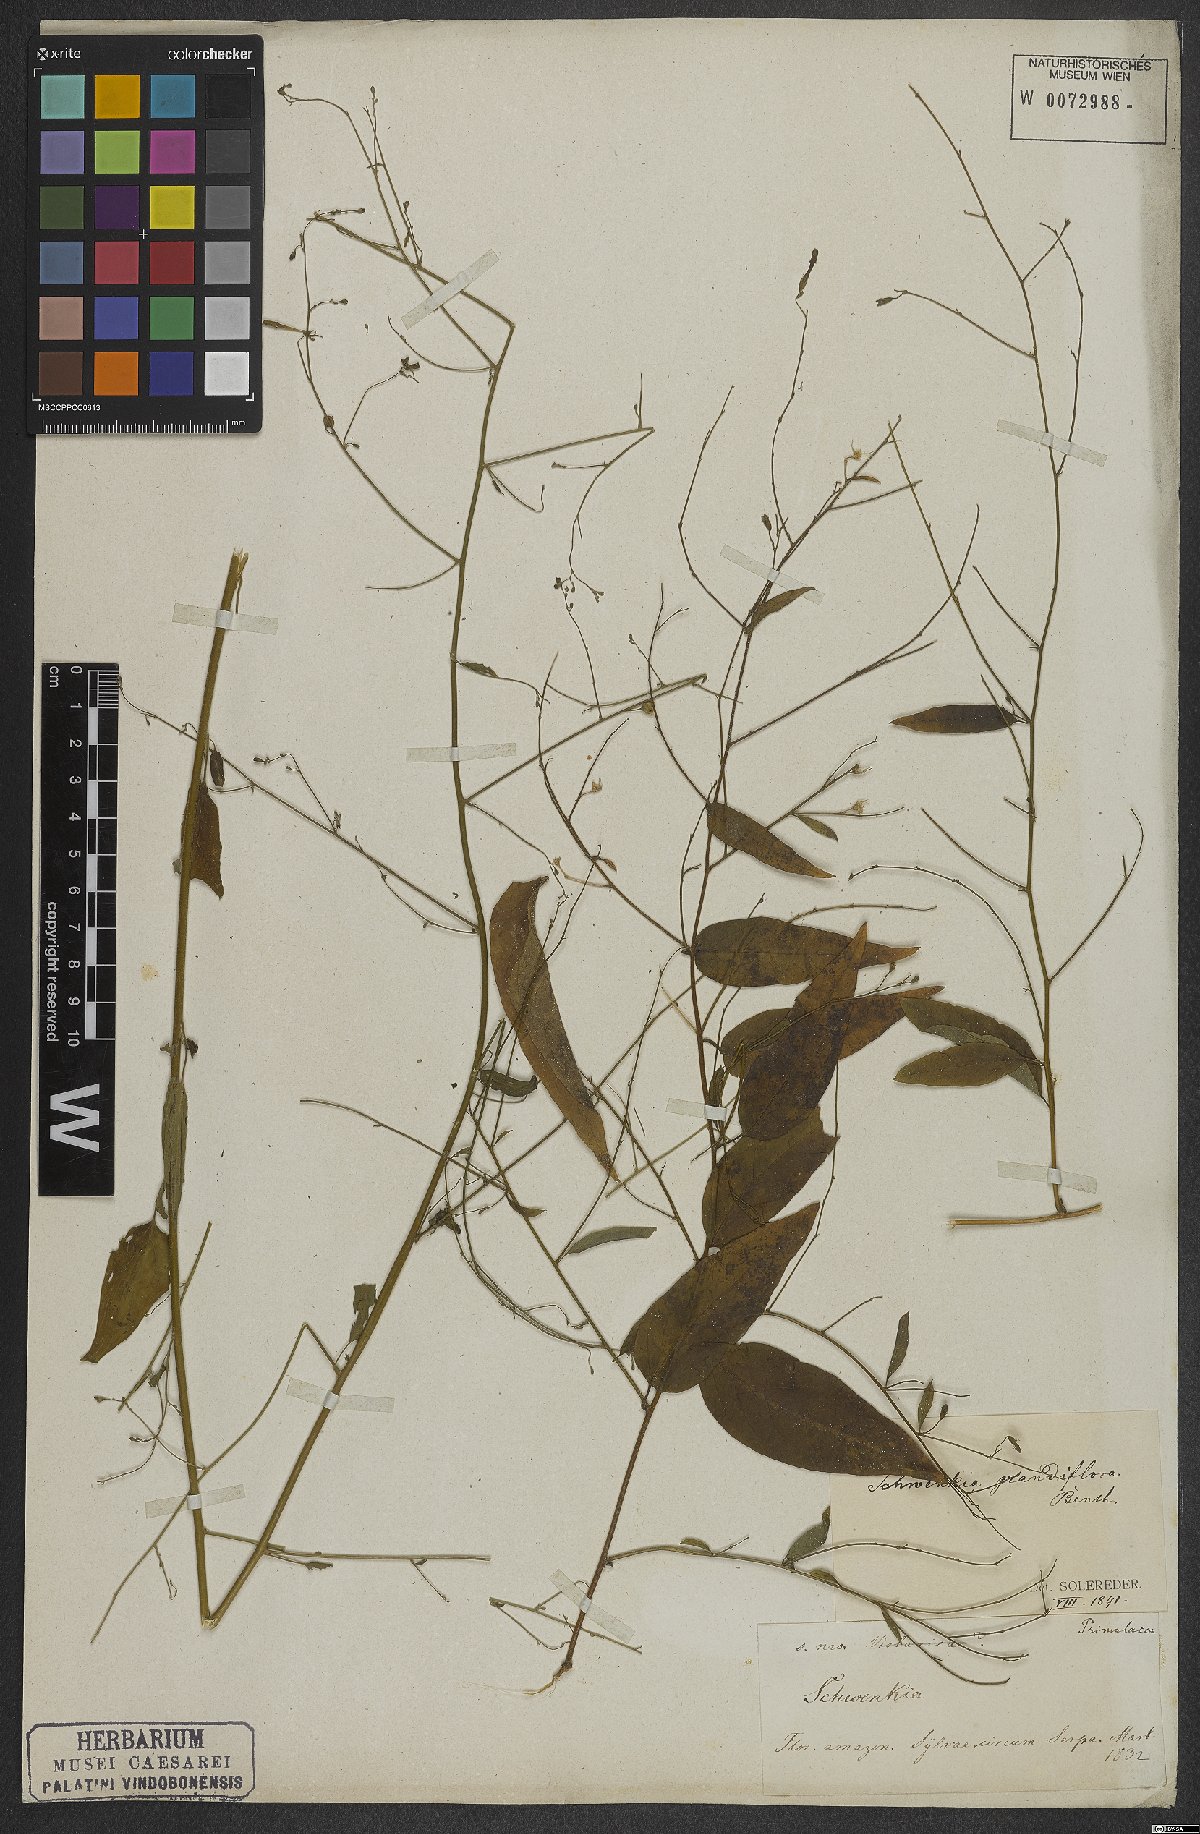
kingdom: Plantae
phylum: Tracheophyta
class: Magnoliopsida
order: Solanales
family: Solanaceae
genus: Schwenckia
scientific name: Schwenckia grandiflora
